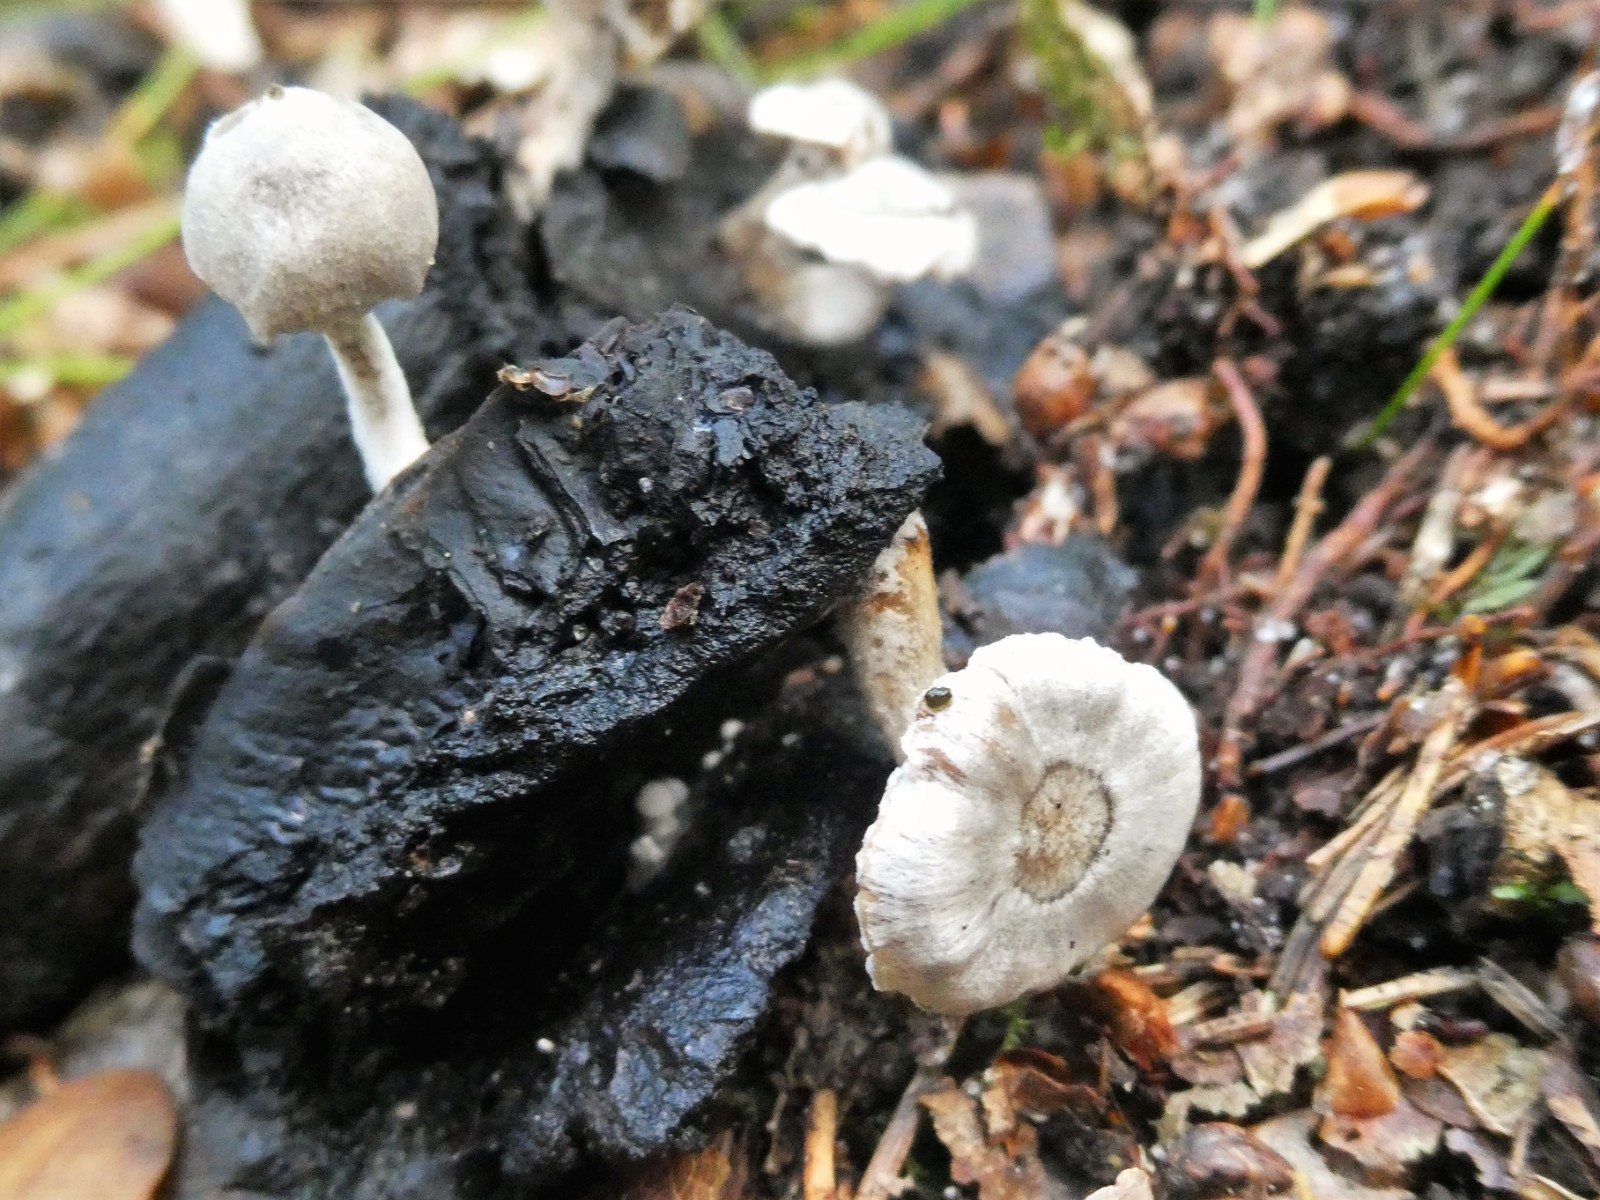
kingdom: Fungi
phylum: Basidiomycota
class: Agaricomycetes
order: Agaricales
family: Lyophyllaceae
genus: Asterophora
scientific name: Asterophora parasitica
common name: grå snyltehat
